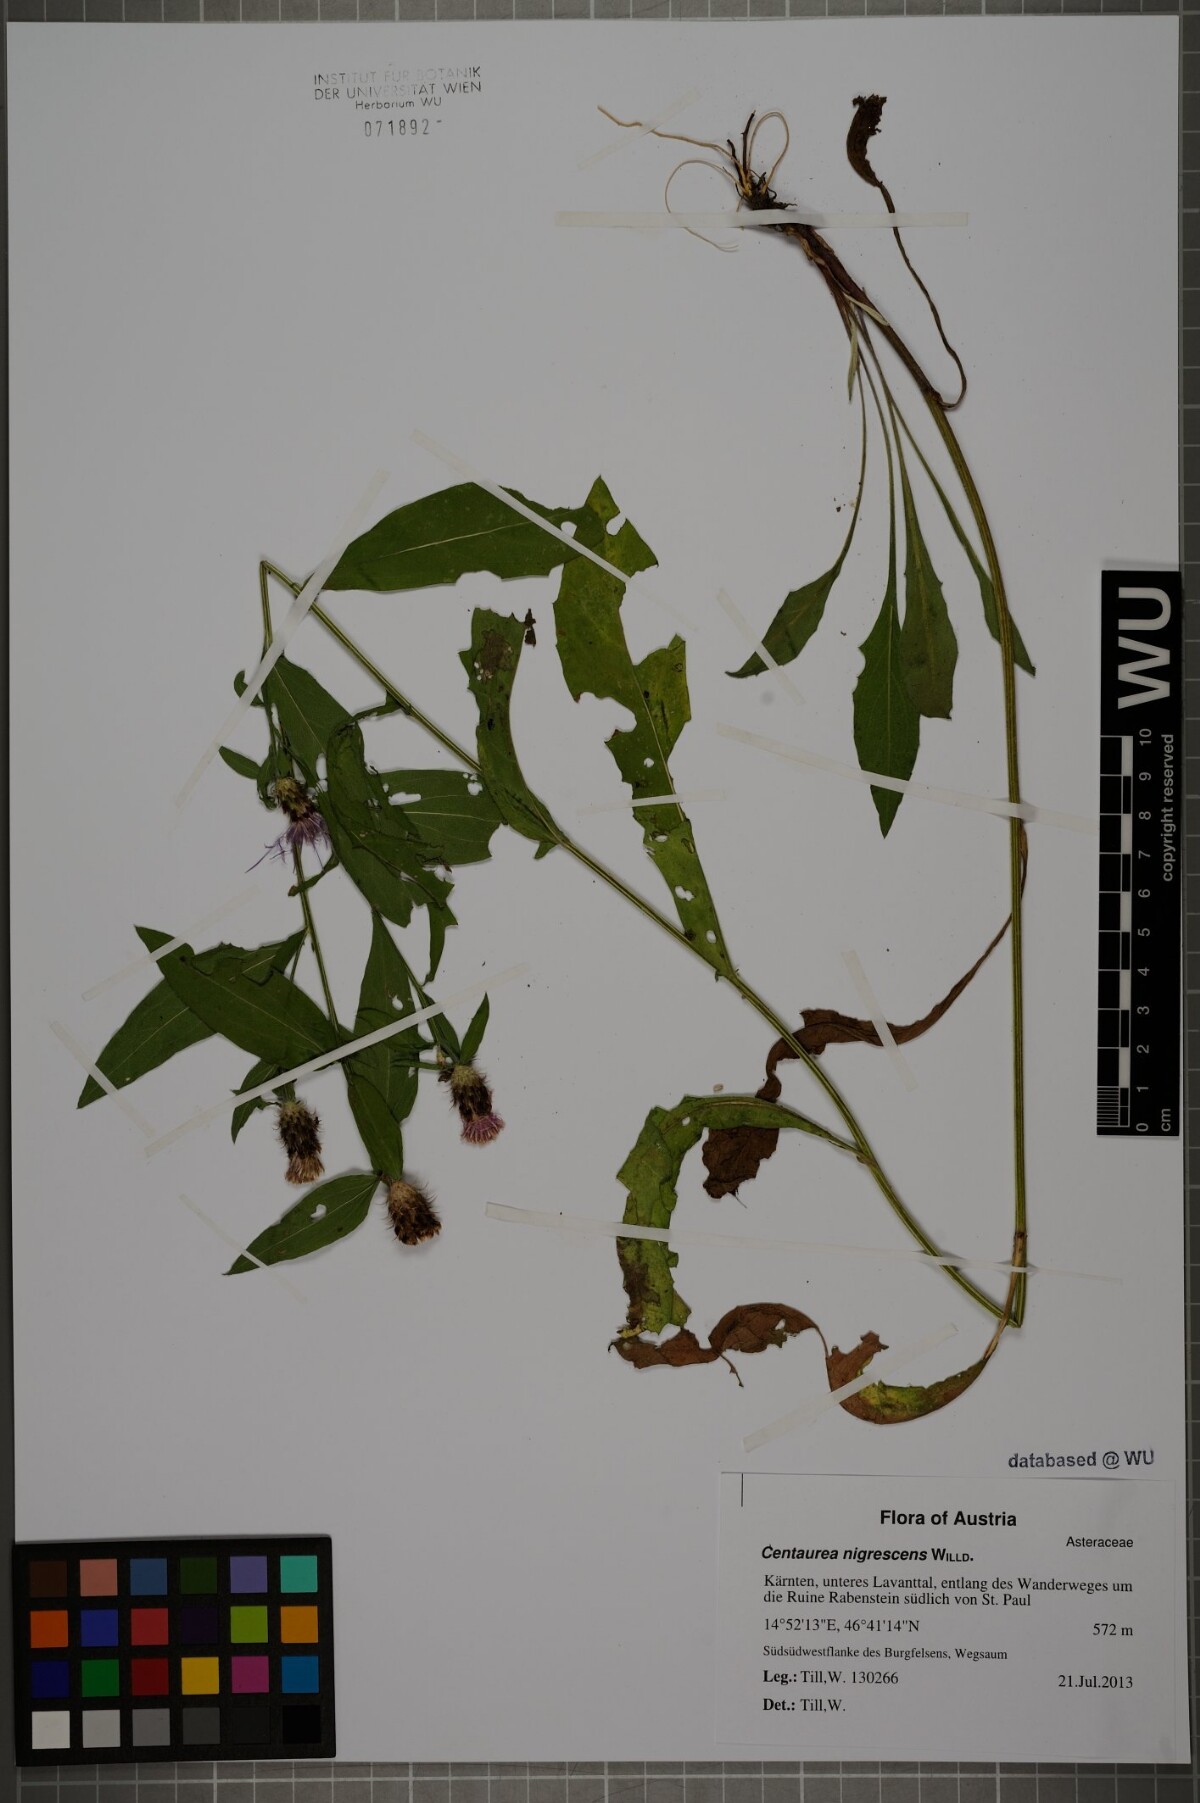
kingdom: Plantae
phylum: Tracheophyta
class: Magnoliopsida
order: Asterales
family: Asteraceae
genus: Centaurea
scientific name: Centaurea nigrescens
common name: Tyrol knapweed
